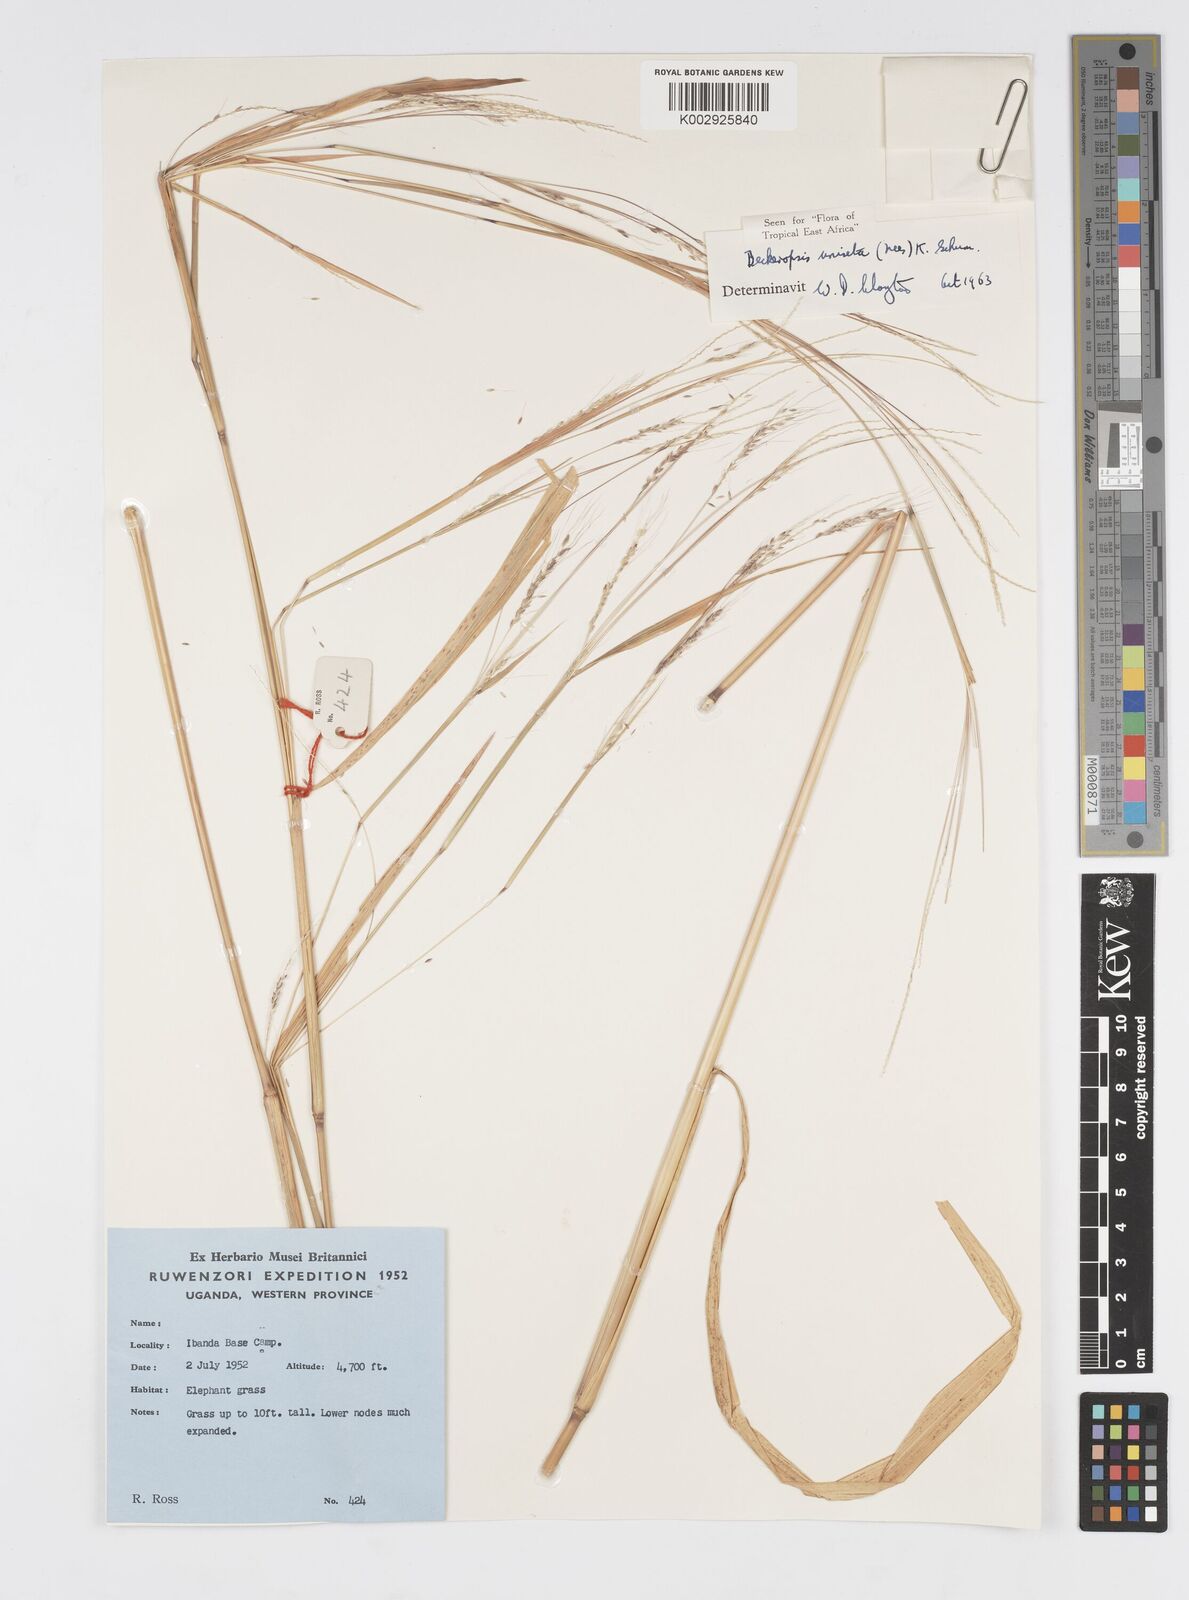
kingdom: Plantae
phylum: Tracheophyta
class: Liliopsida
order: Poales
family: Poaceae
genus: Cenchrus
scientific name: Cenchrus unisetus
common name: Natal grass
